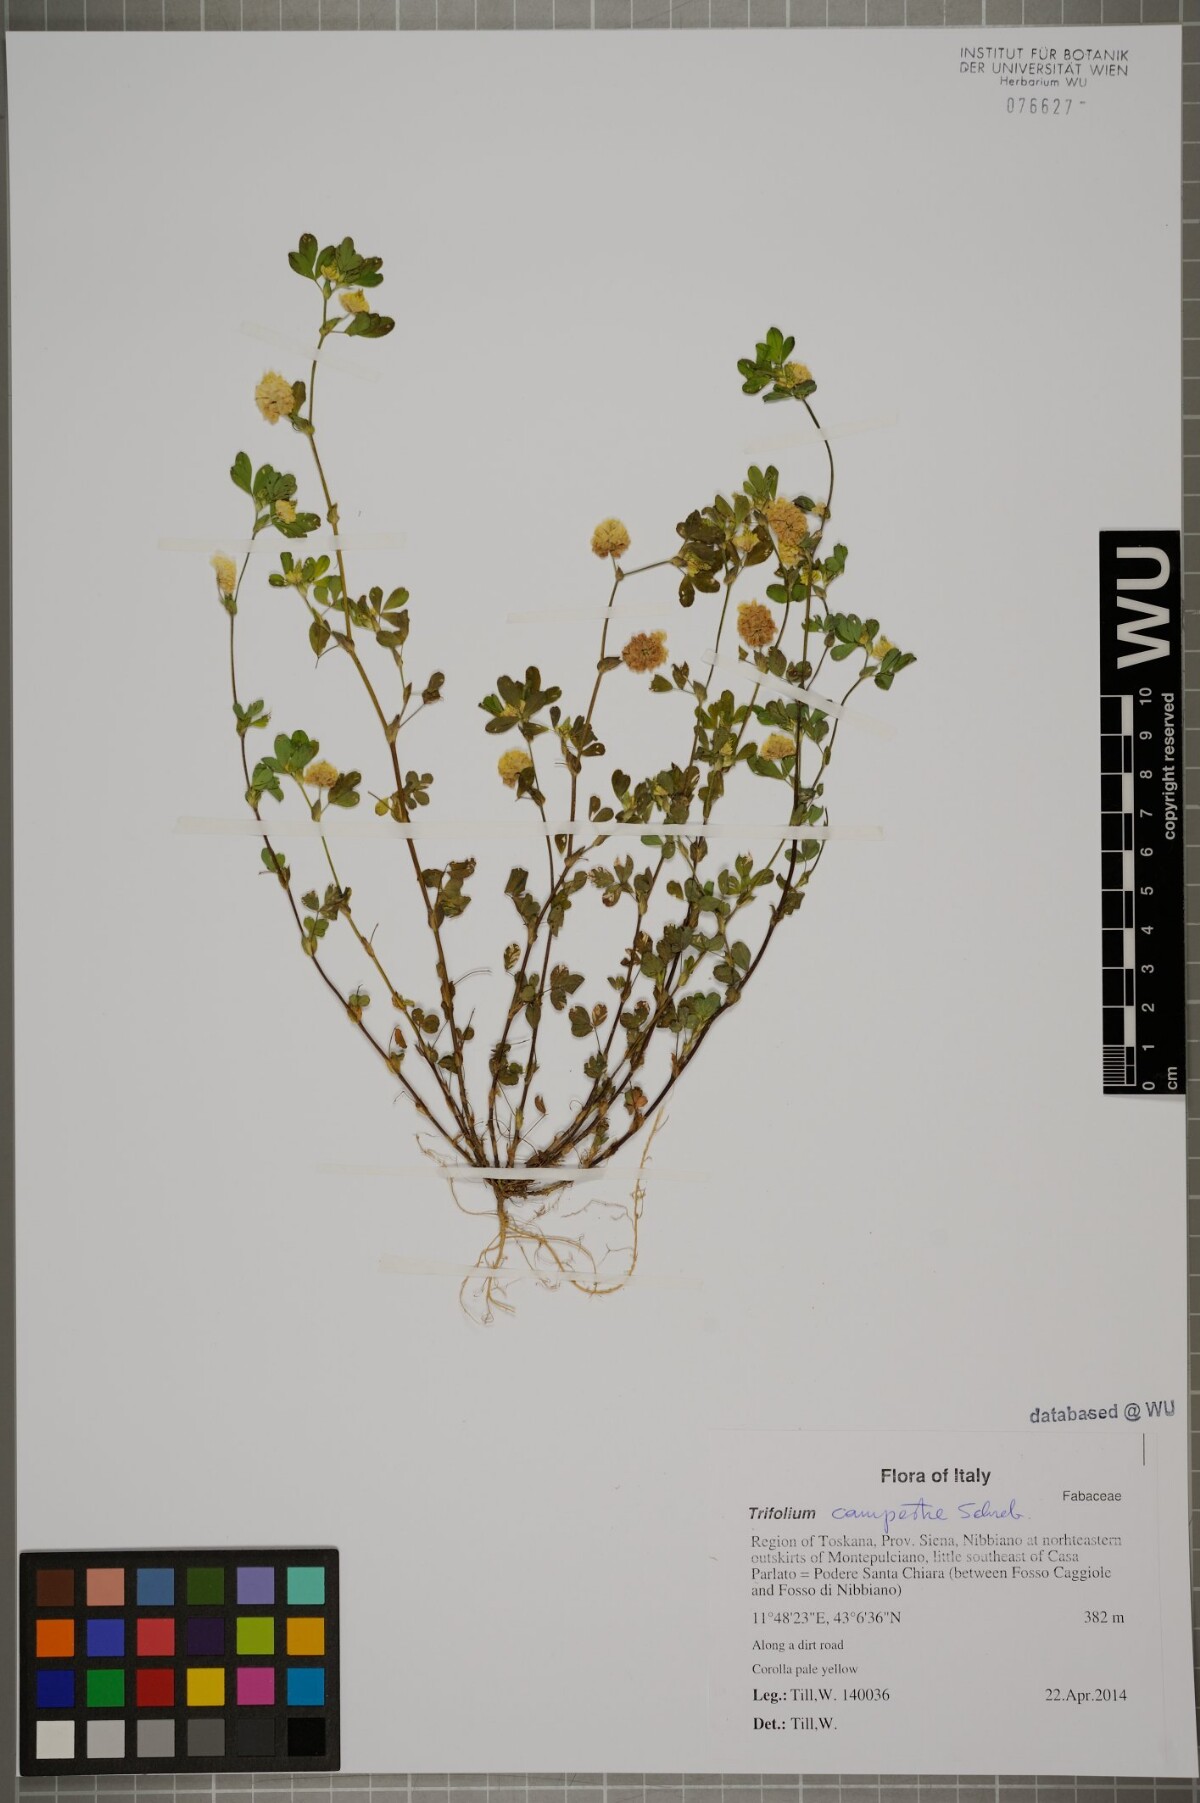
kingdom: Plantae
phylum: Tracheophyta
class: Magnoliopsida
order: Fabales
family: Fabaceae
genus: Trifolium
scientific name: Trifolium campestre
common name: Field clover
